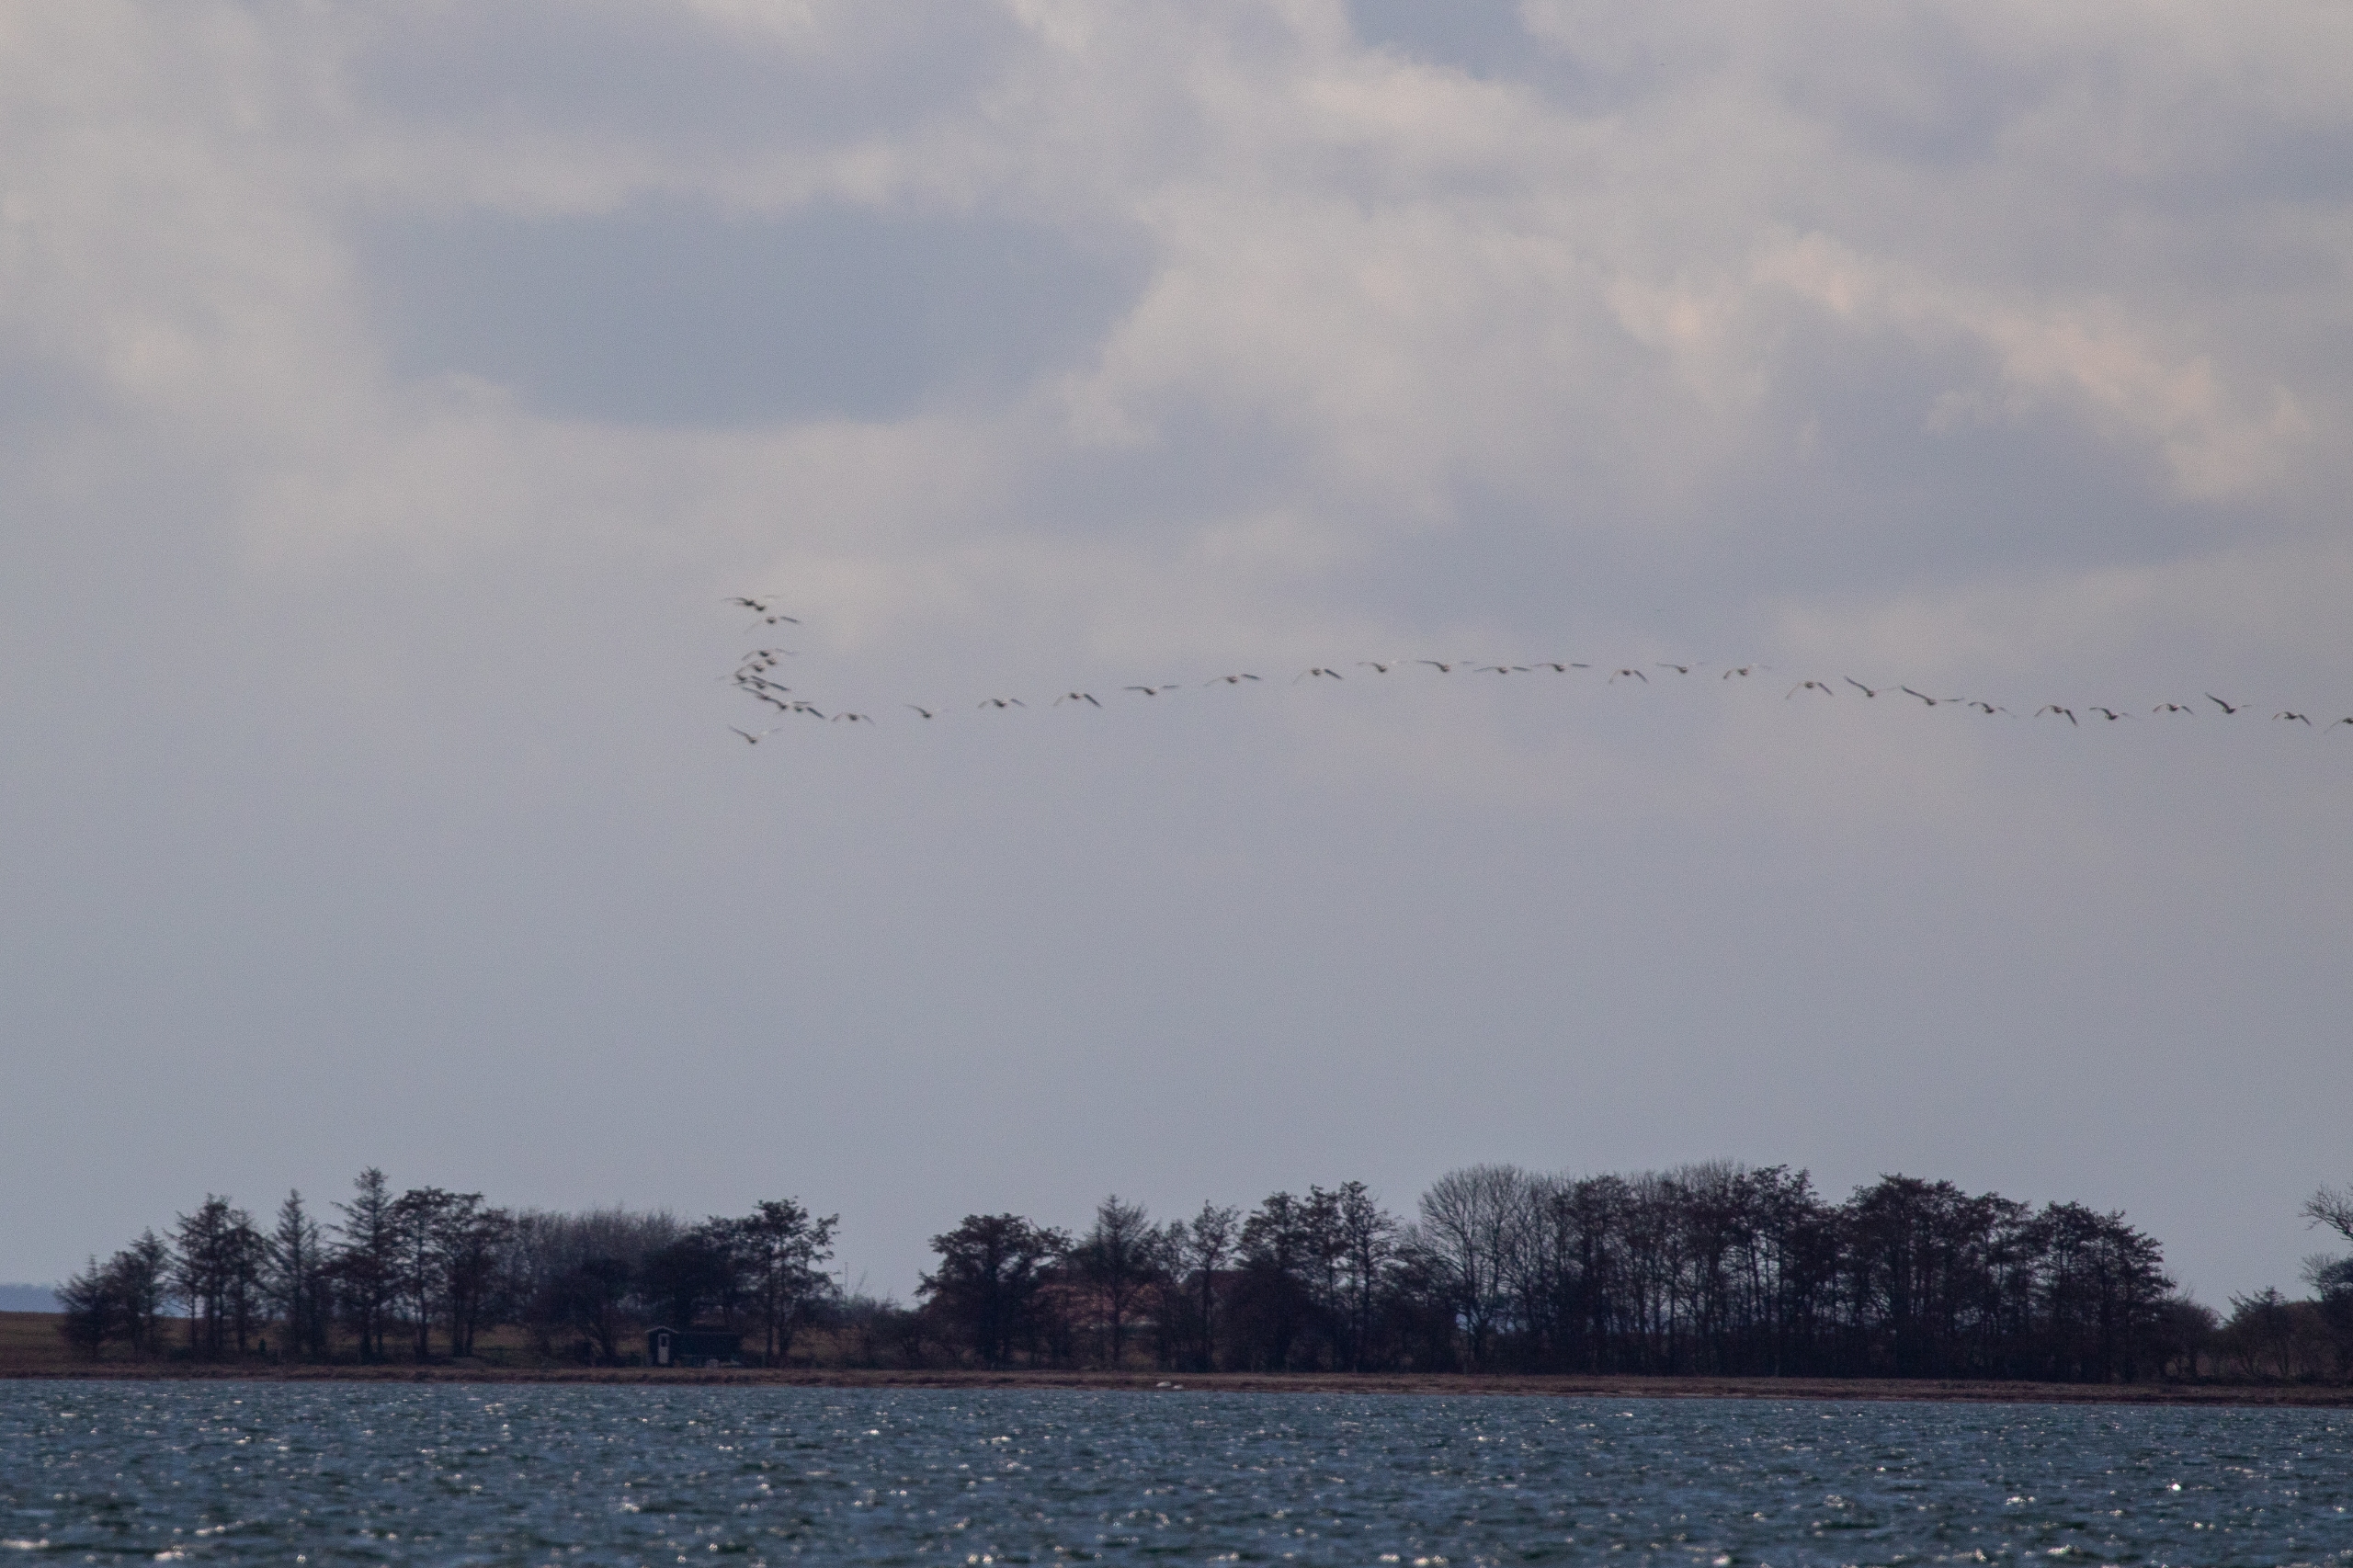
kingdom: Animalia
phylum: Chordata
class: Aves
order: Anseriformes
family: Anatidae
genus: Branta
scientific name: Branta leucopsis
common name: Bramgås
